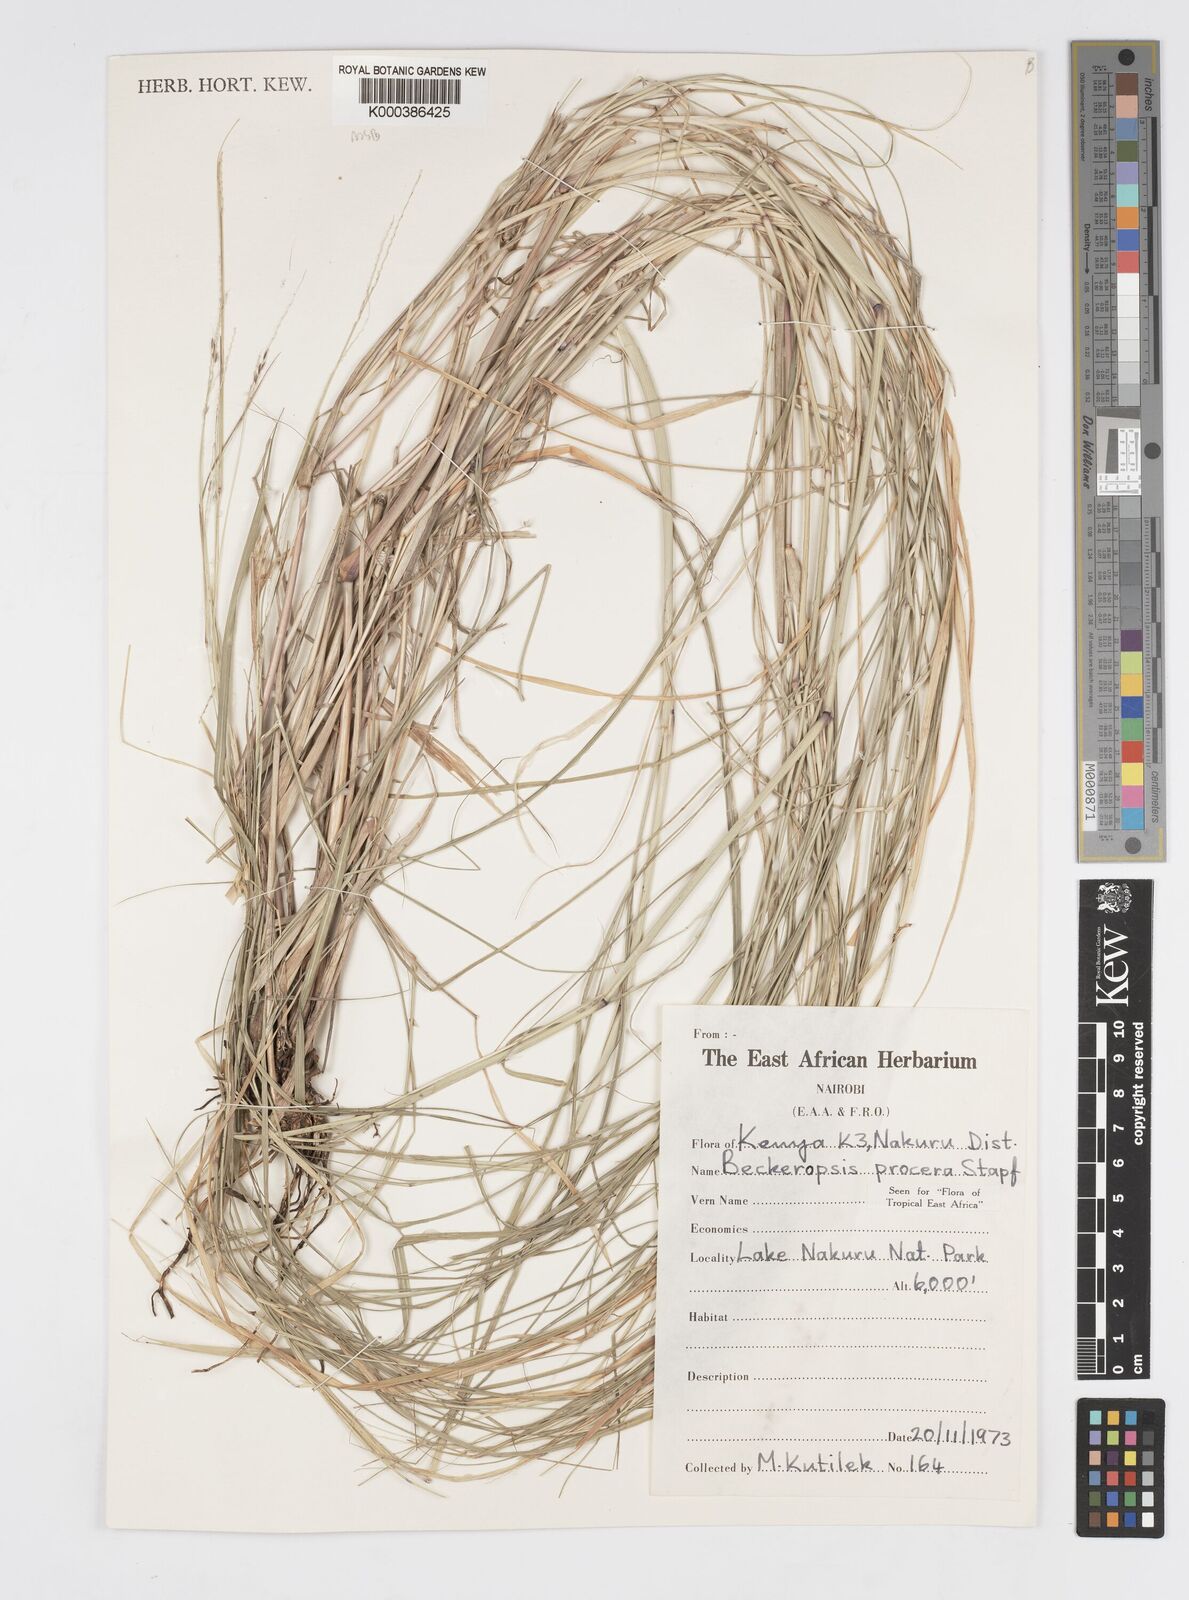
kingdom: Plantae
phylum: Tracheophyta
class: Liliopsida
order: Poales
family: Poaceae
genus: Cenchrus
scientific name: Cenchrus procerus
